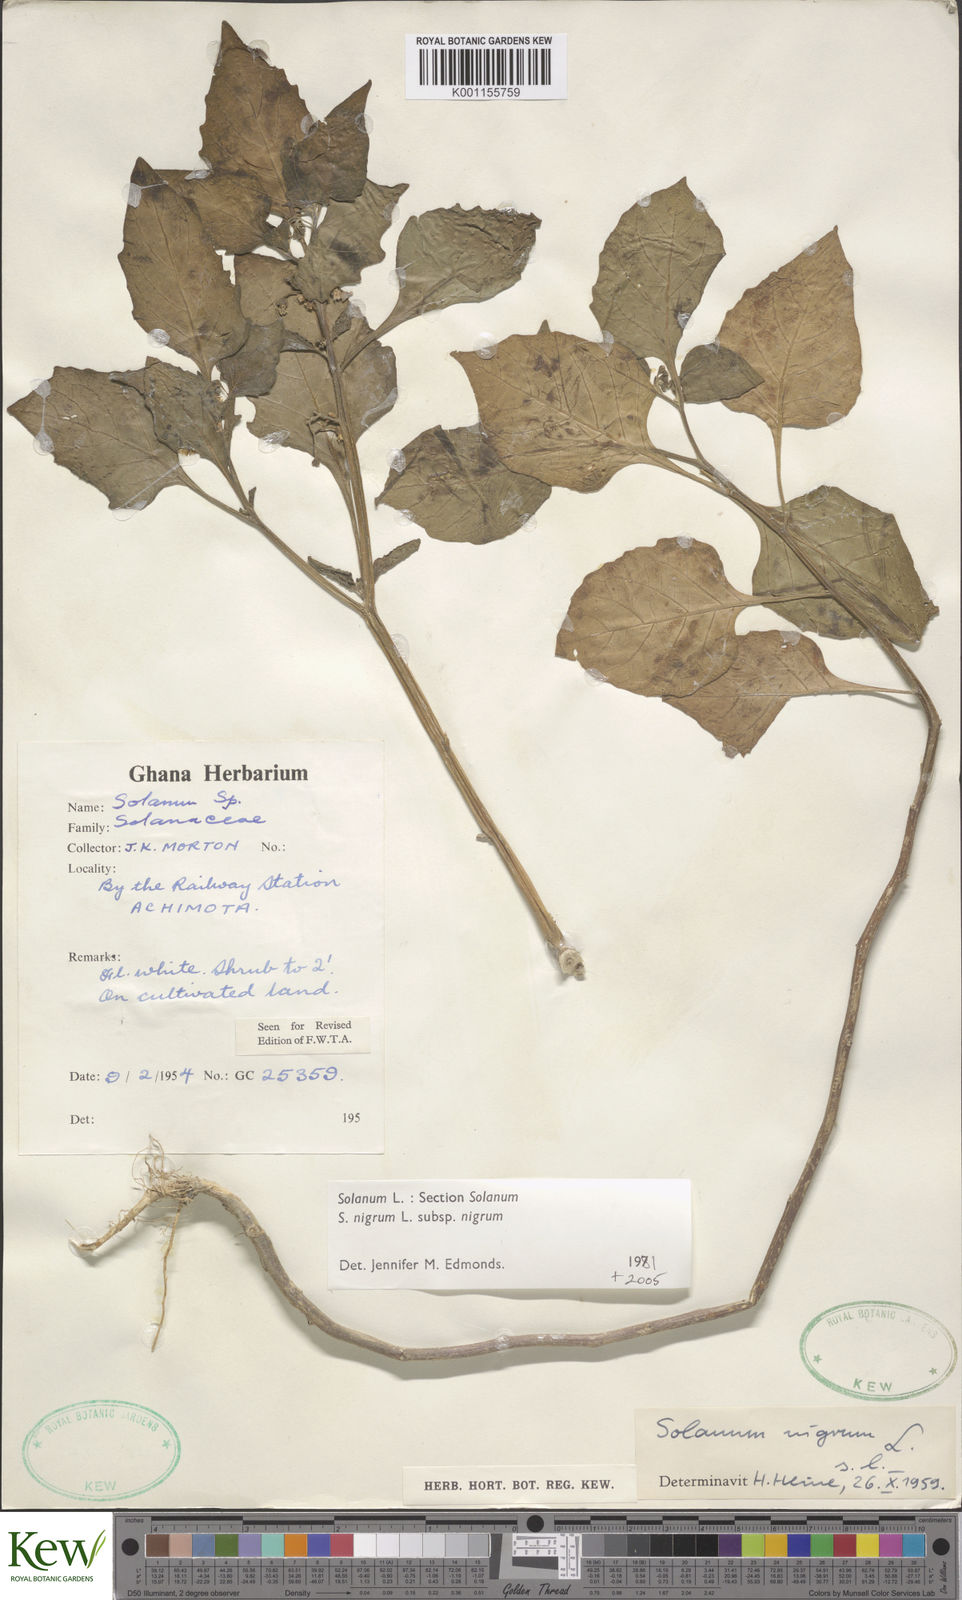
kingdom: Plantae
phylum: Tracheophyta
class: Magnoliopsida
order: Solanales
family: Solanaceae
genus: Solanum
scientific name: Solanum scabrum
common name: Garden-huckleberry
